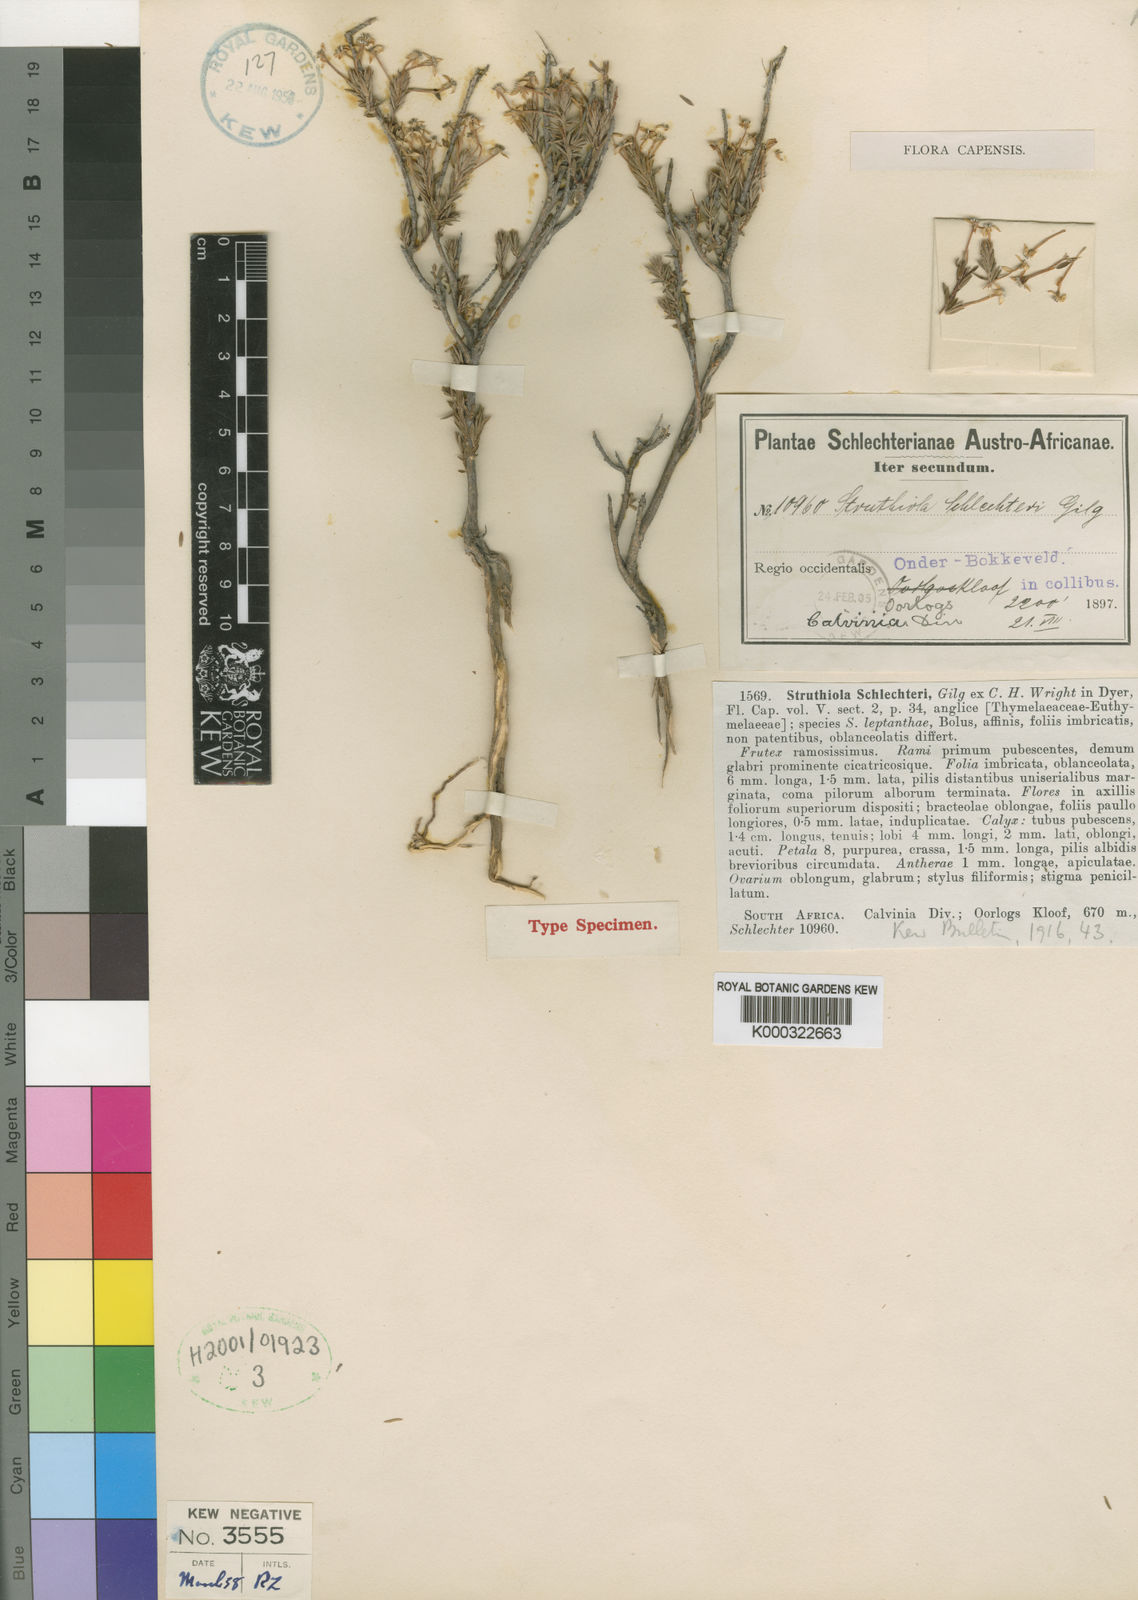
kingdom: Plantae
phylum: Tracheophyta
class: Magnoliopsida
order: Malvales
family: Thymelaeaceae
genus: Struthiola
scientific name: Struthiola ciliata
